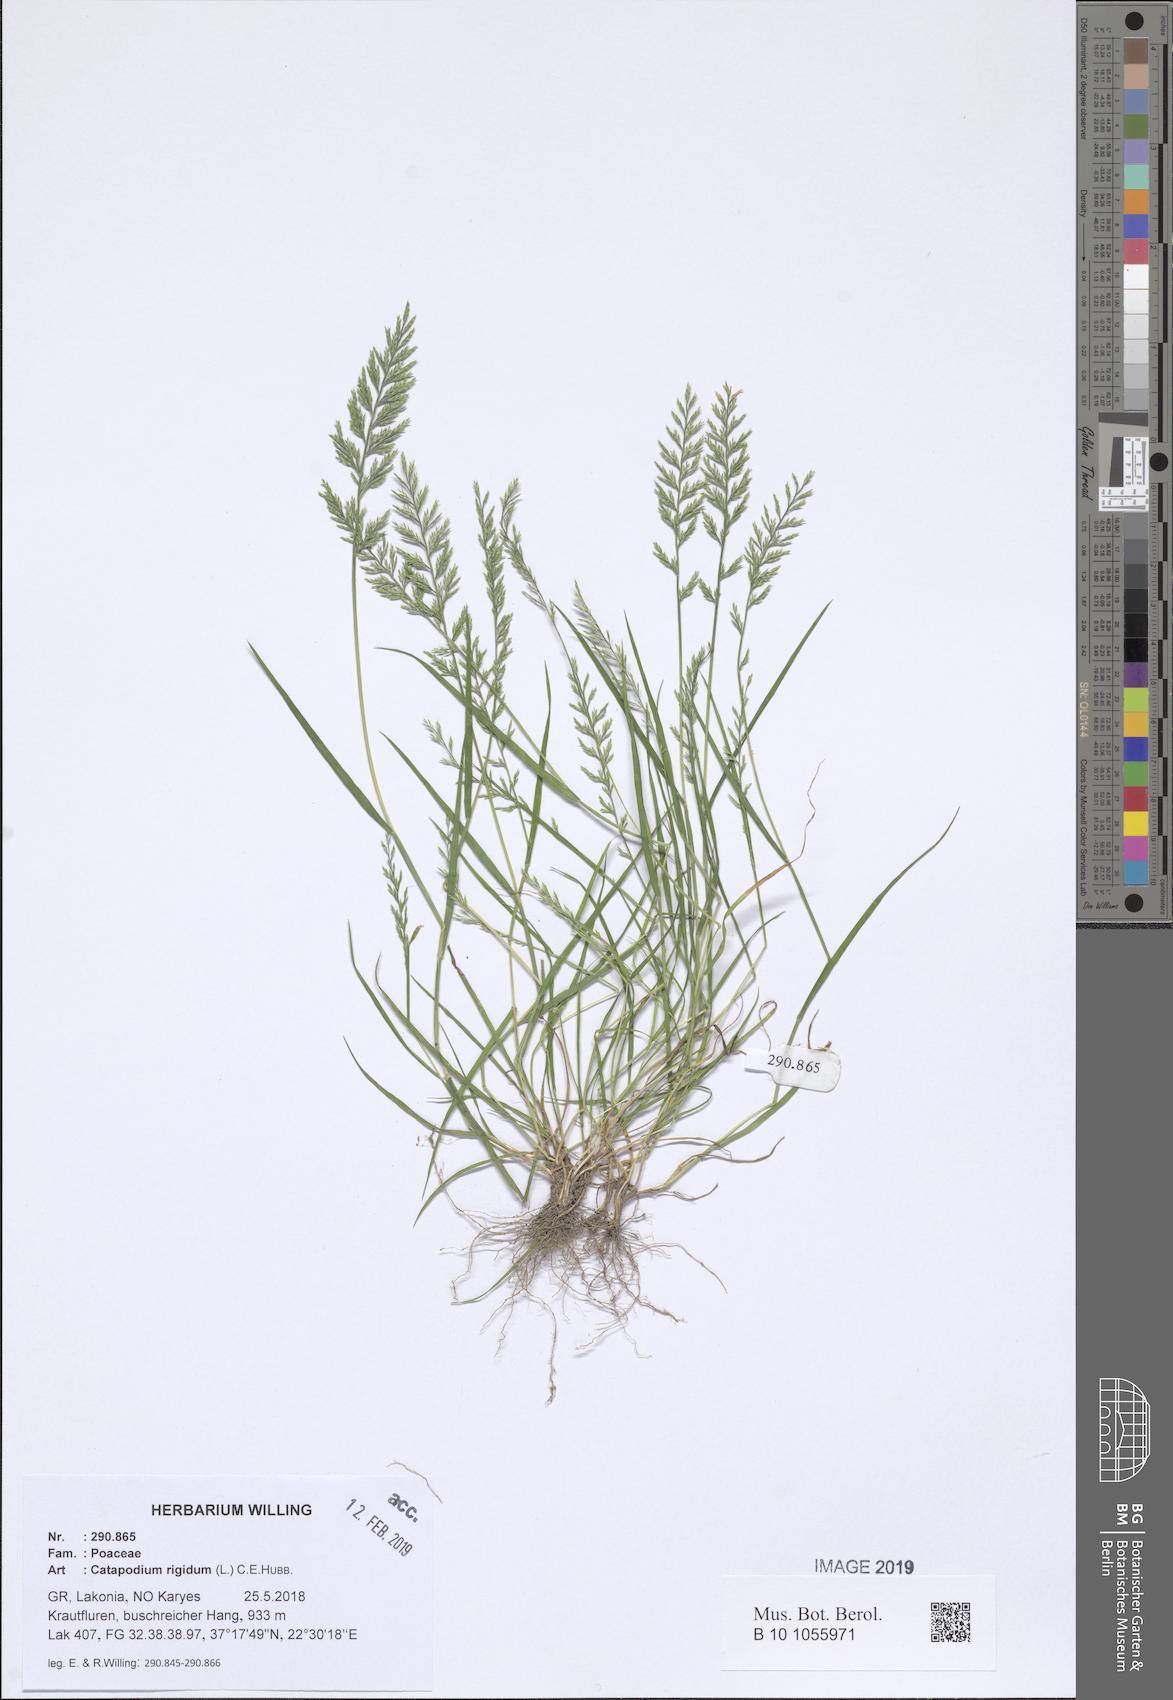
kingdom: Plantae
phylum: Tracheophyta
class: Liliopsida
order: Poales
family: Poaceae
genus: Catapodium
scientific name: Catapodium rigidum
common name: Fern-grass
